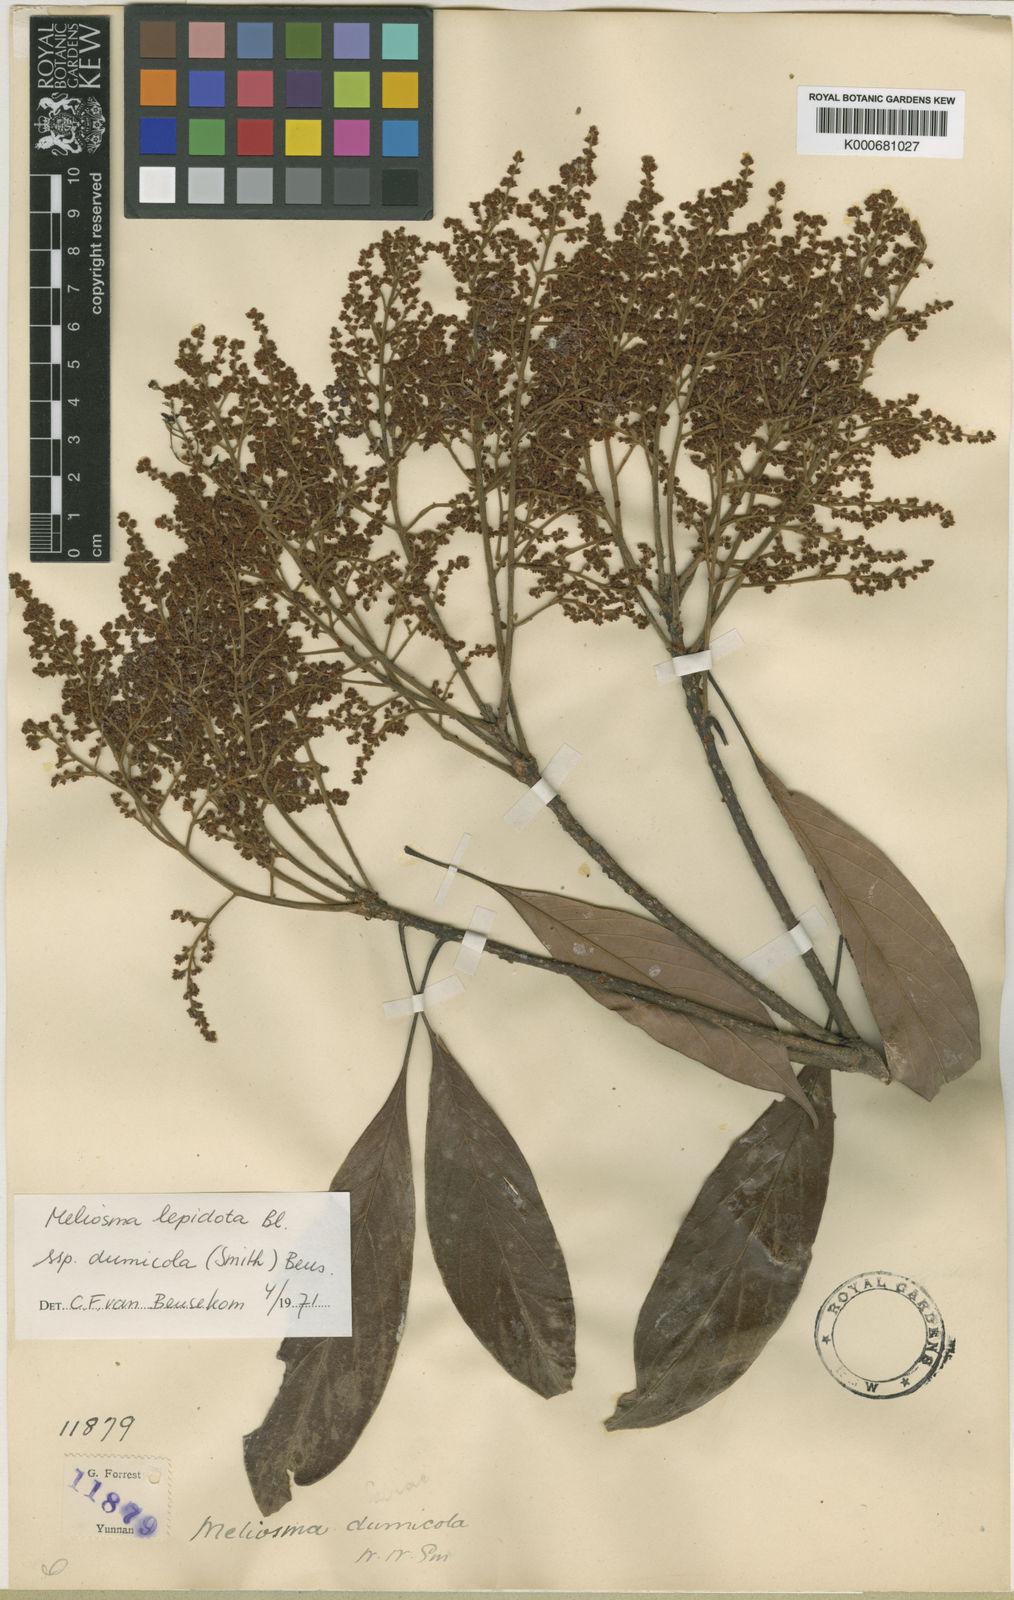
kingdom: Plantae
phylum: Tracheophyta
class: Magnoliopsida
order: Proteales
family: Sabiaceae
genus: Meliosma
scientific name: Meliosma dumicola
